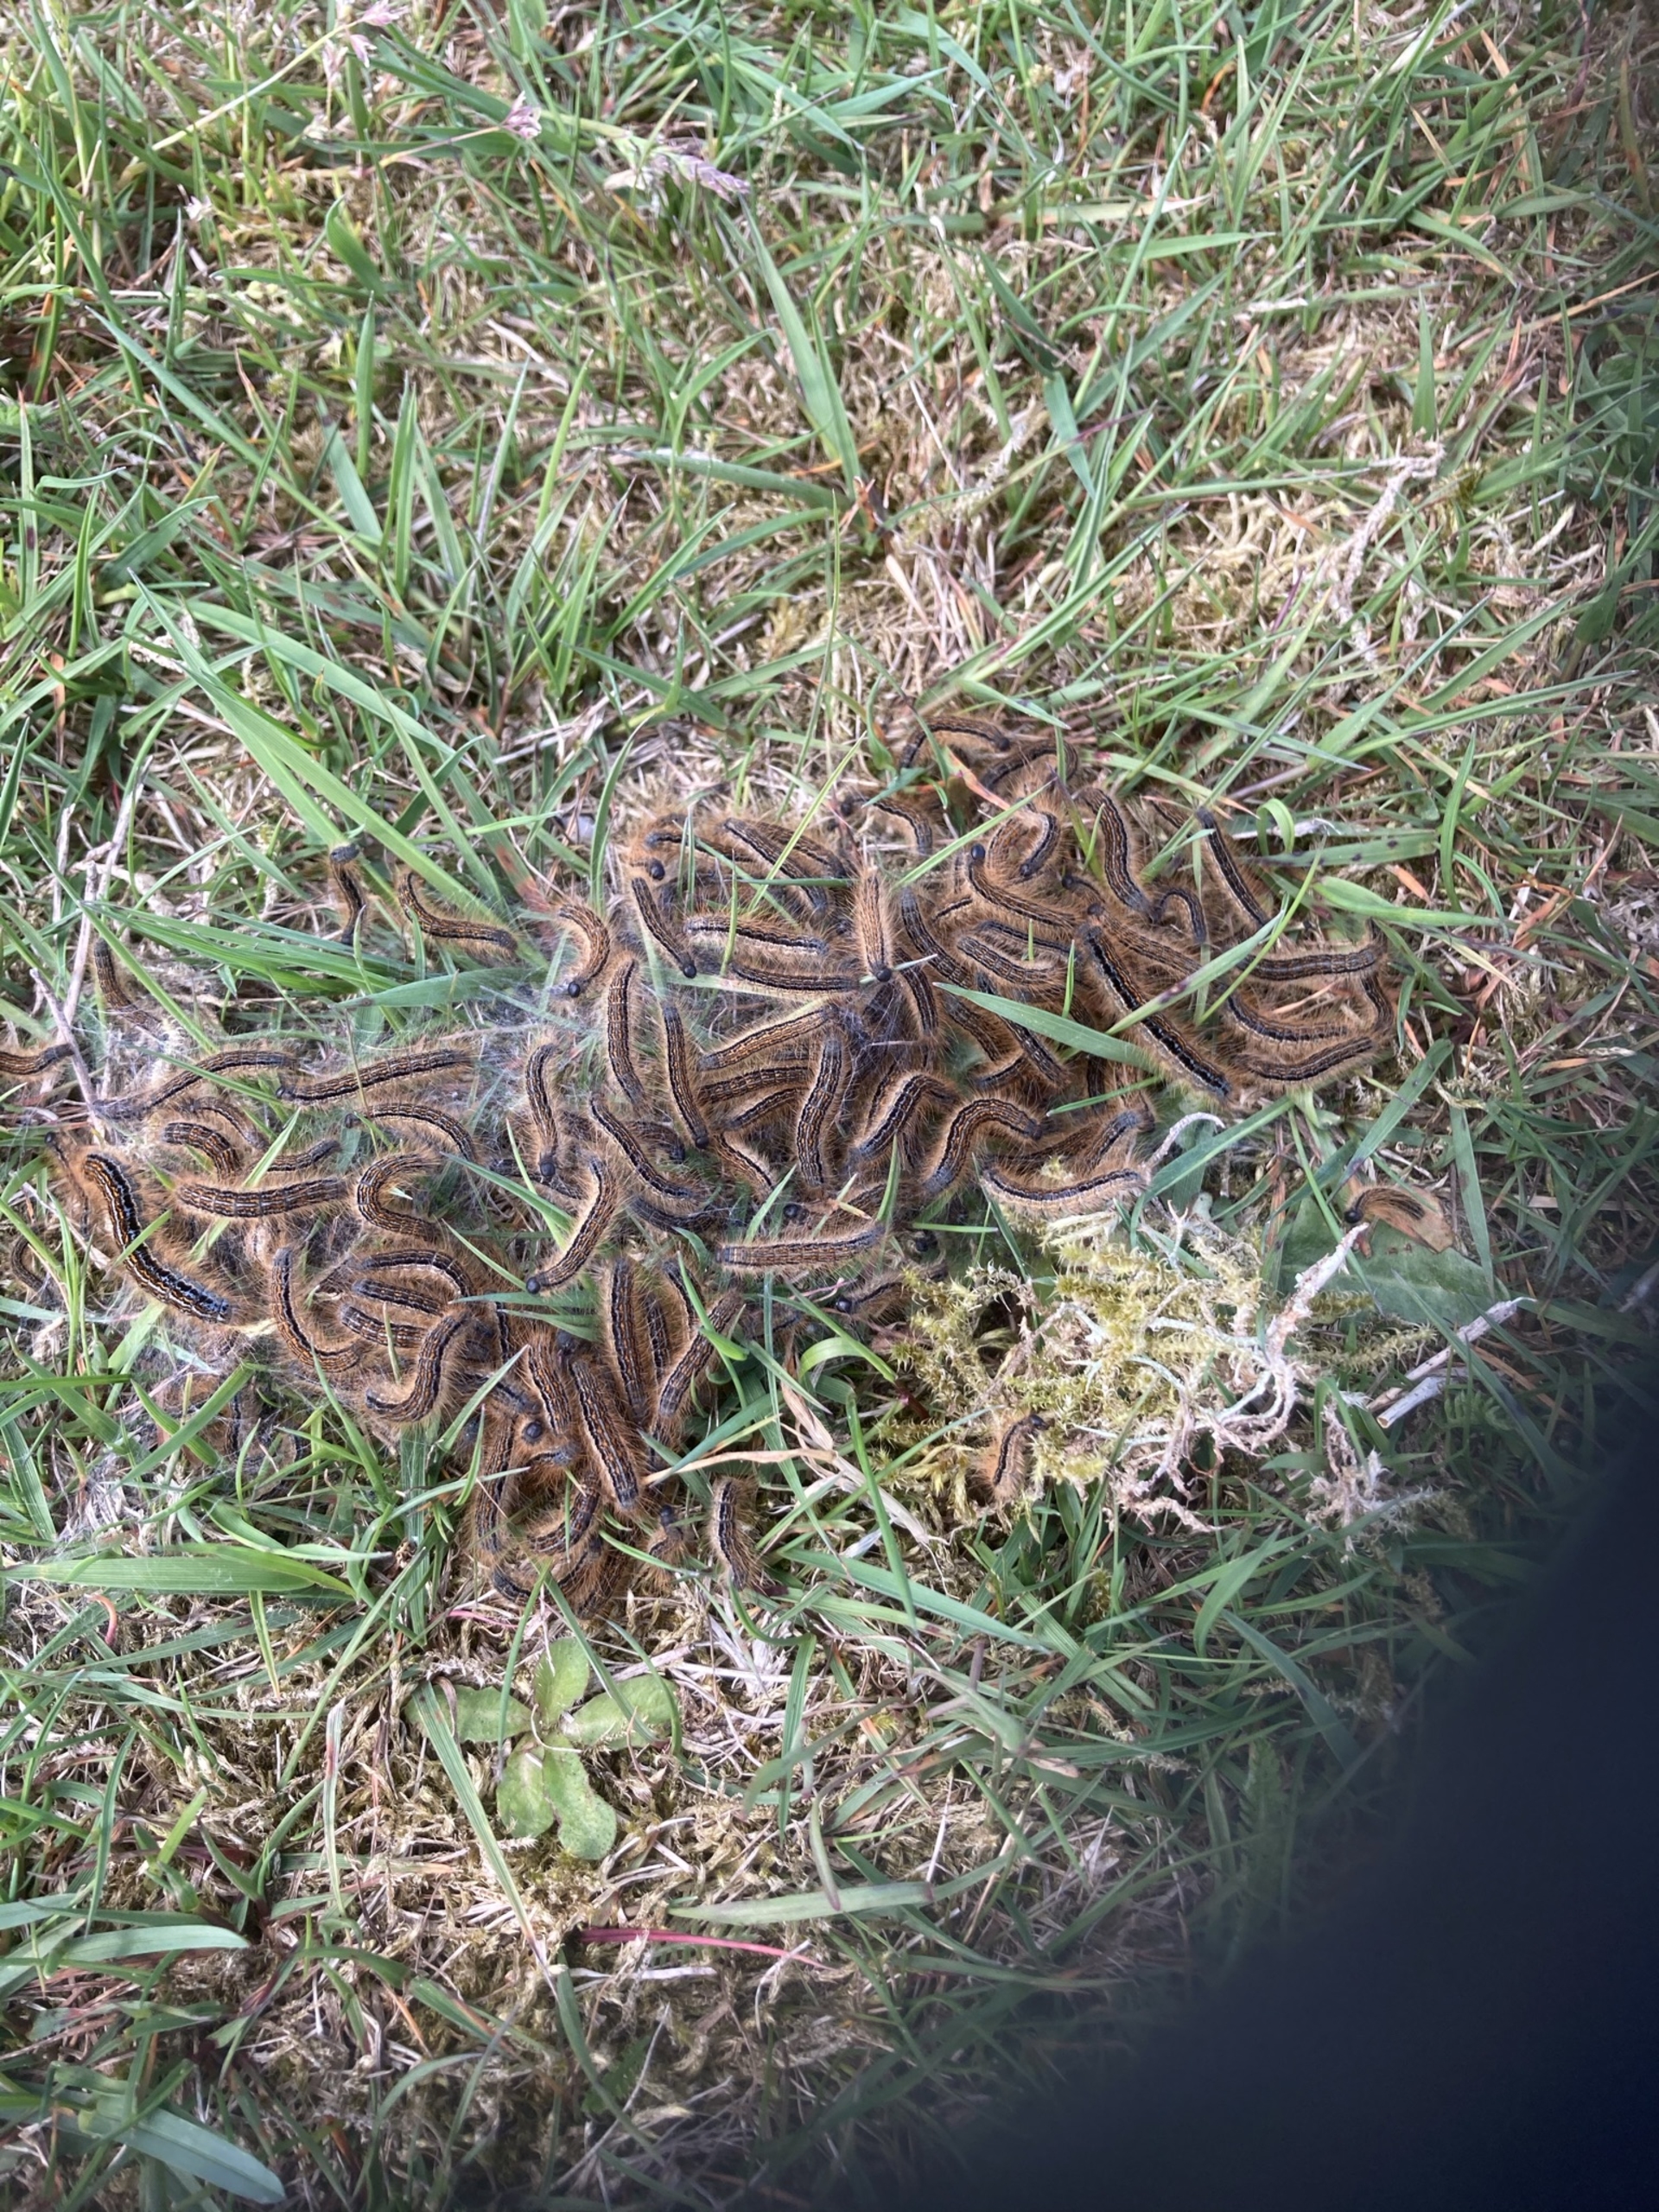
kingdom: Animalia
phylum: Arthropoda
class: Insecta
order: Lepidoptera
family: Lasiocampidae
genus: Malacosoma
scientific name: Malacosoma castrensis
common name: Redespinder
